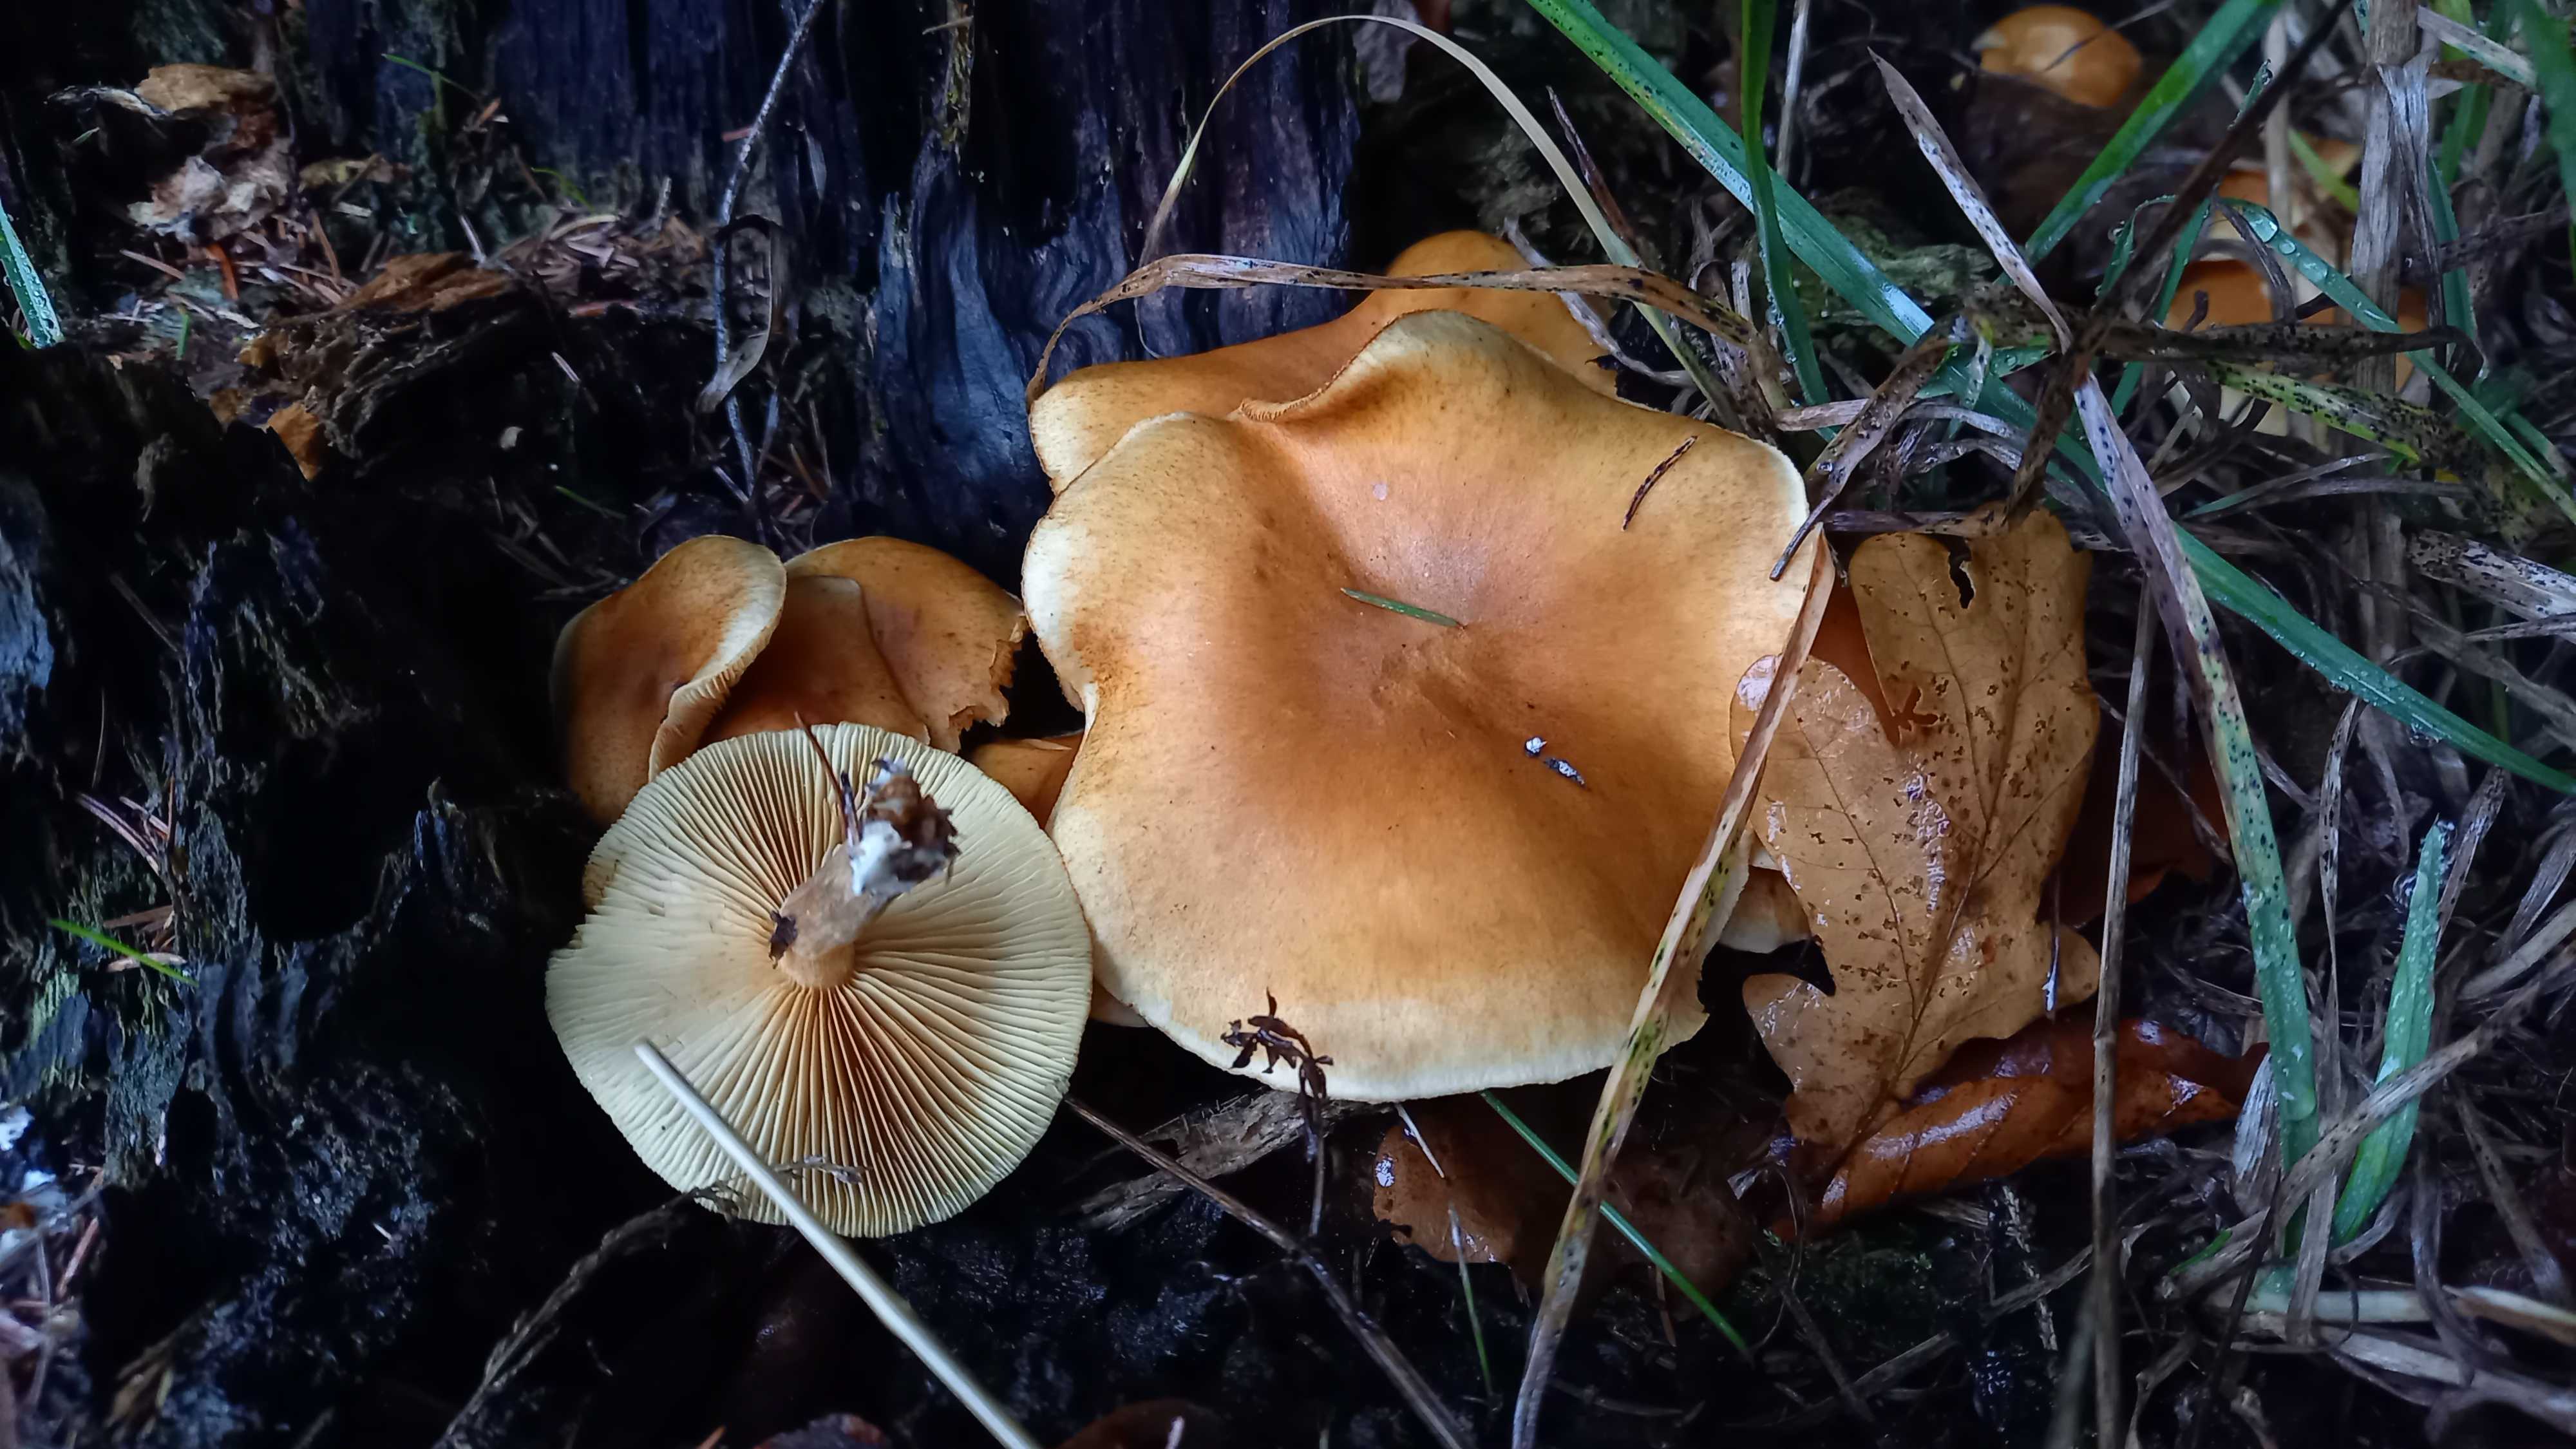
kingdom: Fungi
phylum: Basidiomycota
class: Agaricomycetes
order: Agaricales
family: Hymenogastraceae
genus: Gymnopilus
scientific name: Gymnopilus penetrans
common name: plettet flammehat
